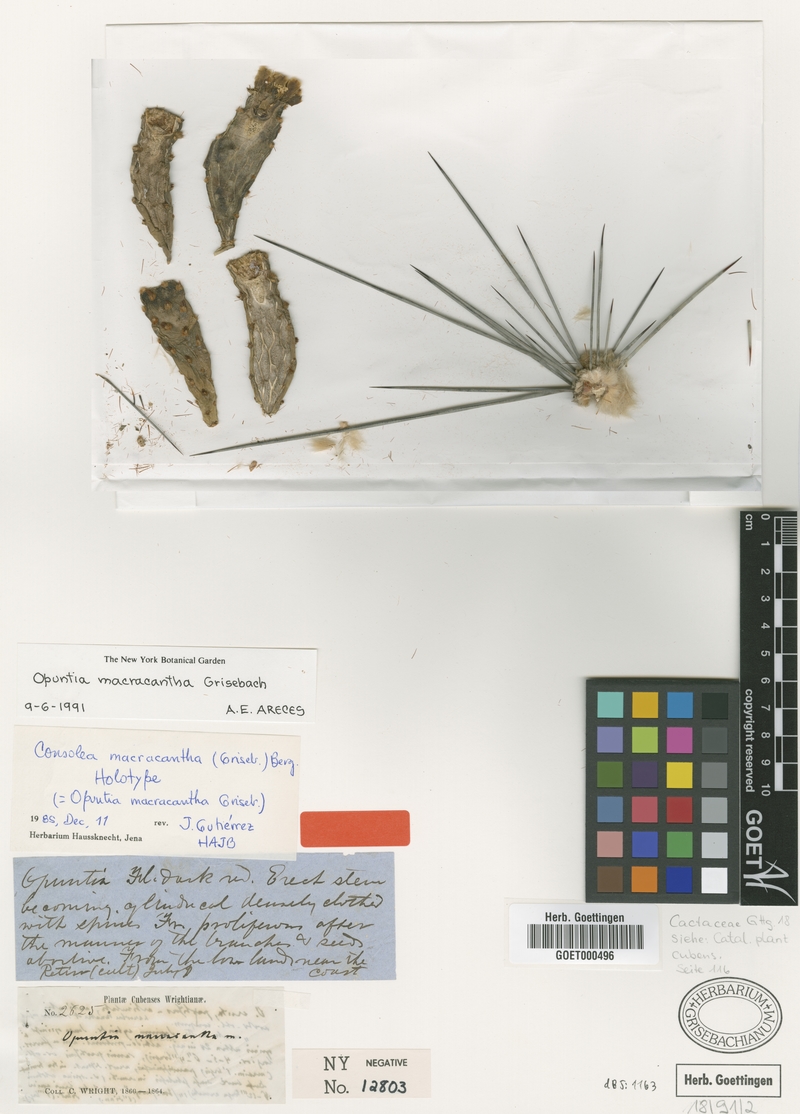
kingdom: Plantae
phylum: Tracheophyta
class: Magnoliopsida
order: Caryophyllales
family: Cactaceae
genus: Consolea
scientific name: Consolea macracantha
